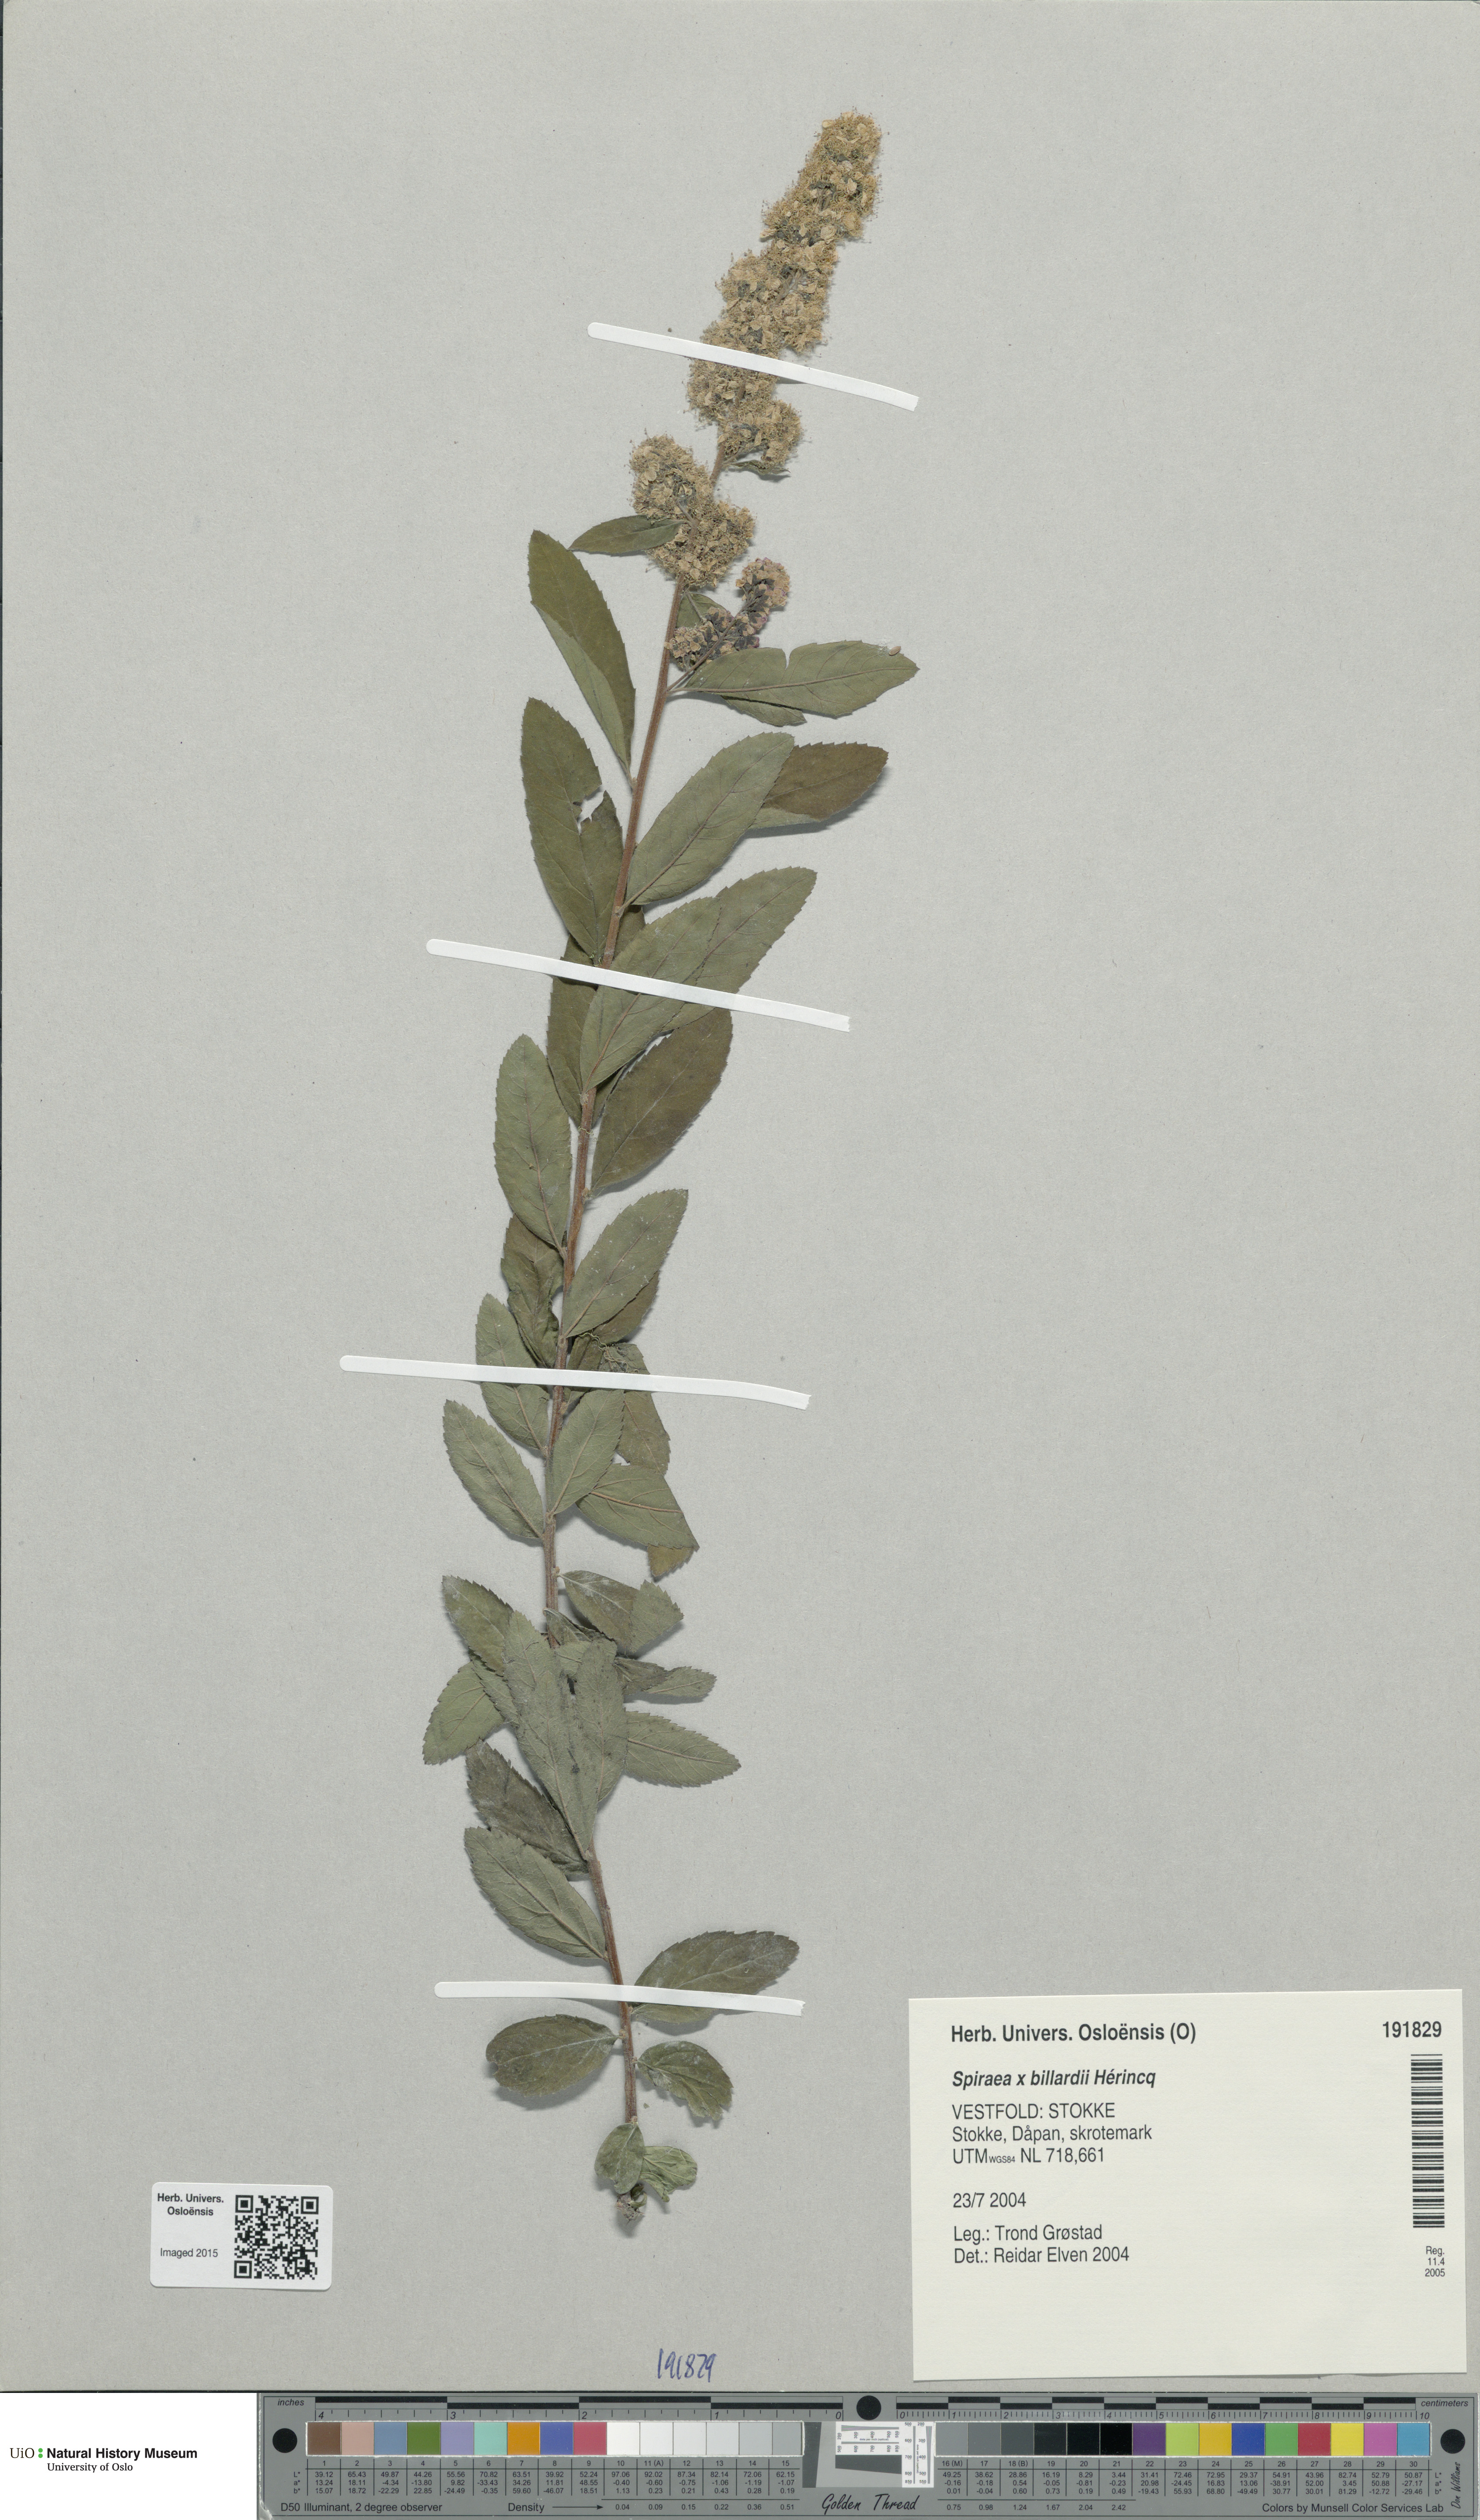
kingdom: Plantae
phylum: Tracheophyta
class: Magnoliopsida
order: Rosales
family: Rosaceae
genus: Spiraea
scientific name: Spiraea billardii
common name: Billard's bridewort
